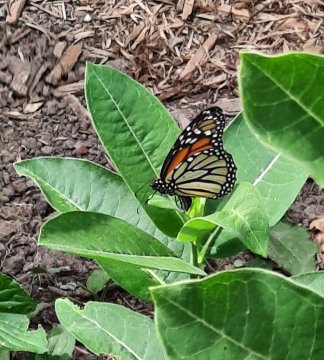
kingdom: Animalia
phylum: Arthropoda
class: Insecta
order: Lepidoptera
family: Nymphalidae
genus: Danaus
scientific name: Danaus plexippus
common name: Monarch
